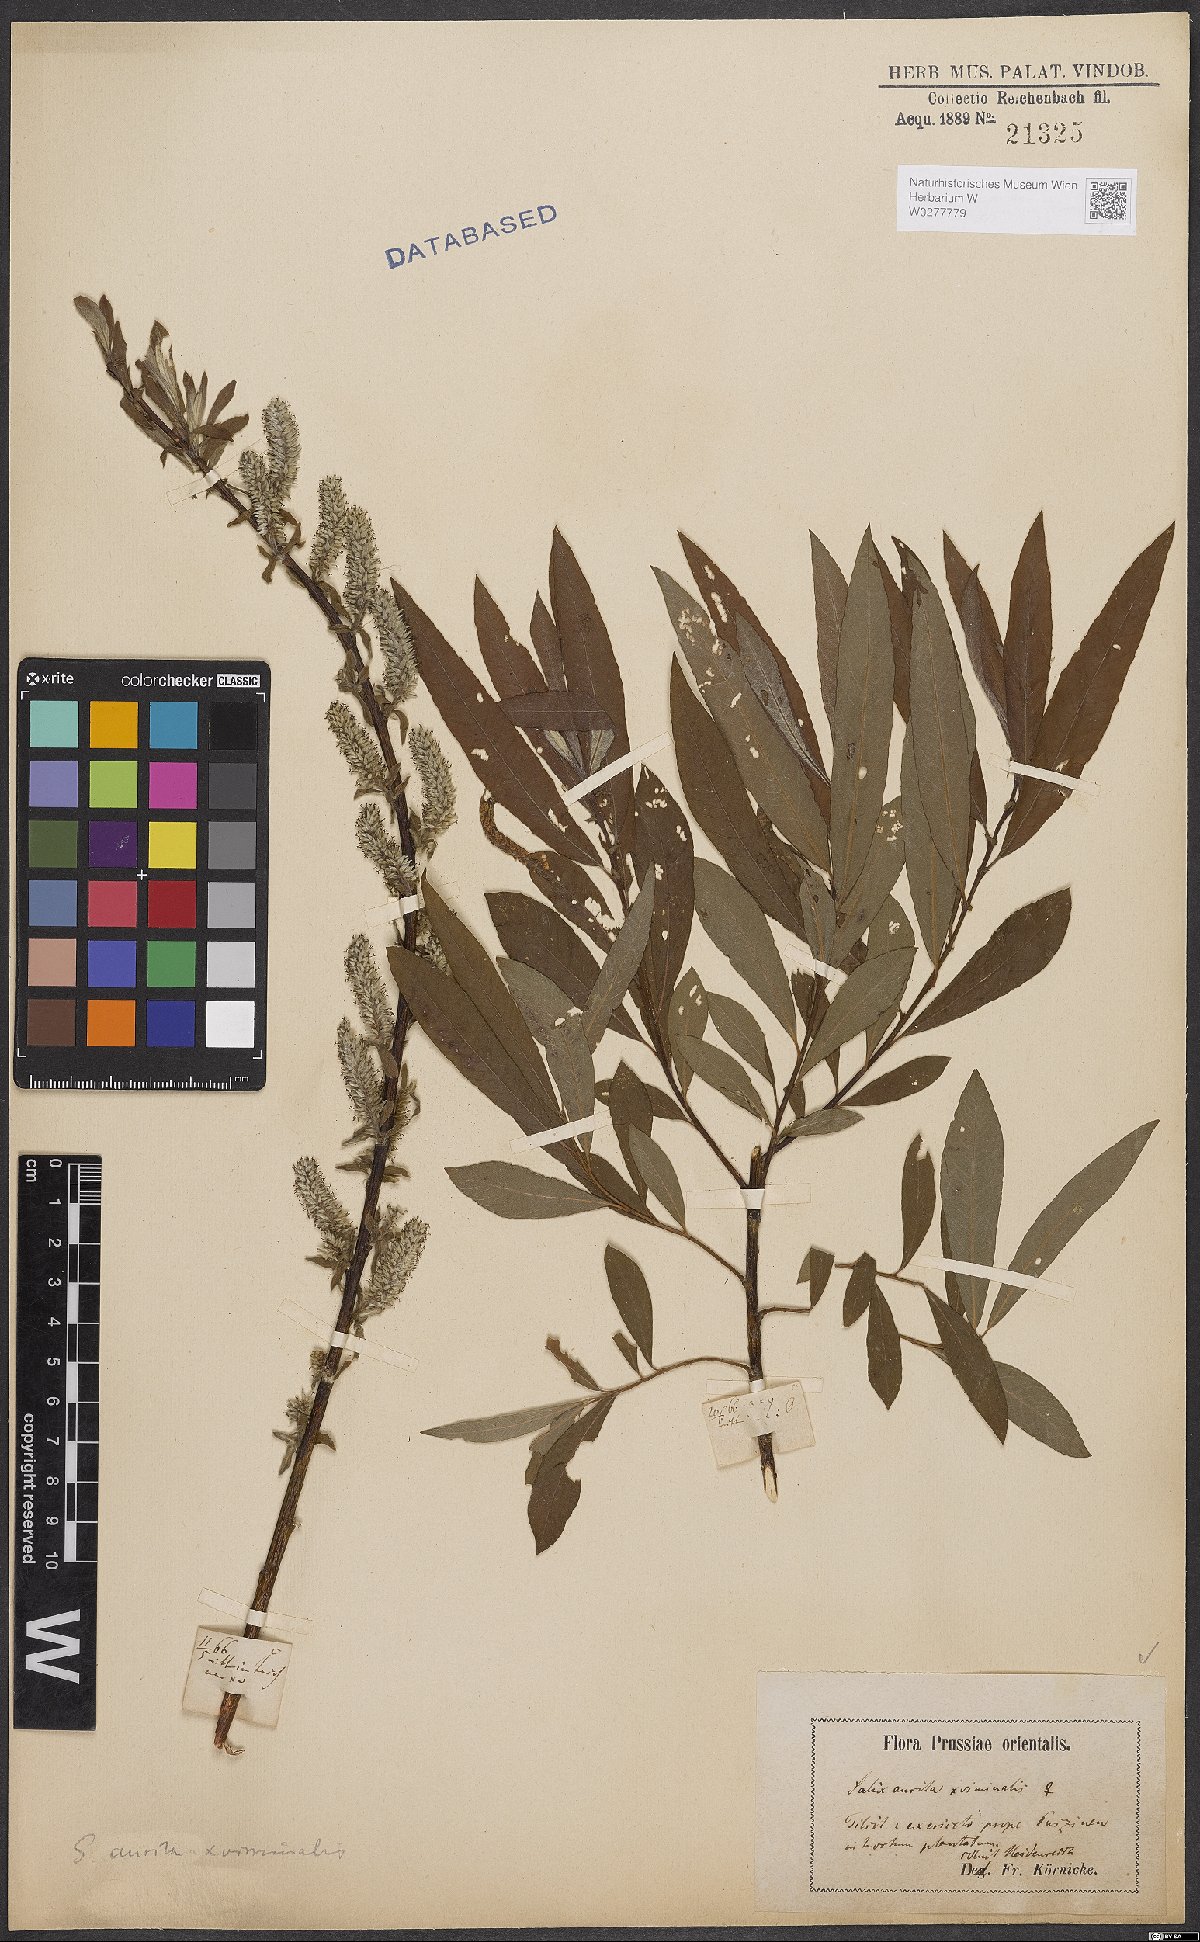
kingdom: Plantae
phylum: Tracheophyta
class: Magnoliopsida
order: Malpighiales
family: Salicaceae
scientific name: Salicaceae
